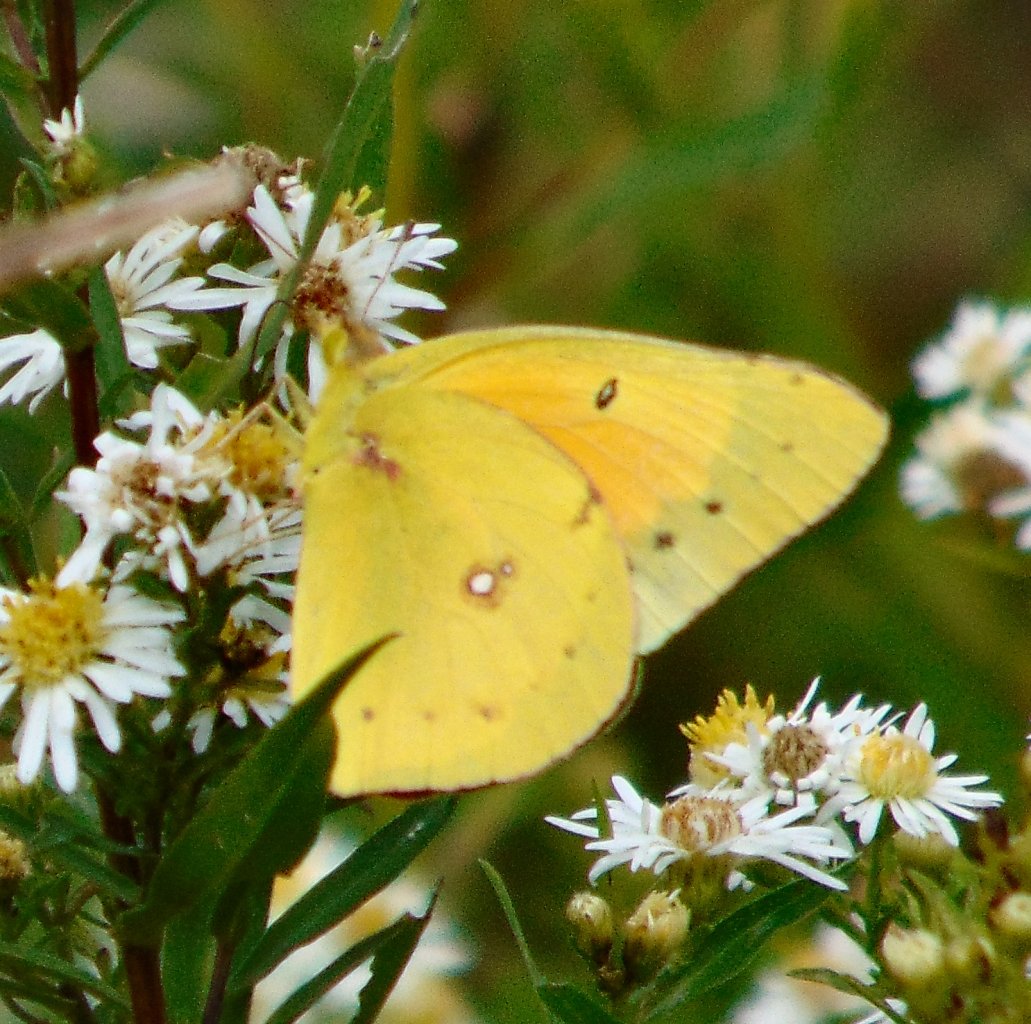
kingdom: Animalia
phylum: Arthropoda
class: Insecta
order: Lepidoptera
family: Pieridae
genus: Colias
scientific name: Colias eurytheme
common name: Orange Sulphur
